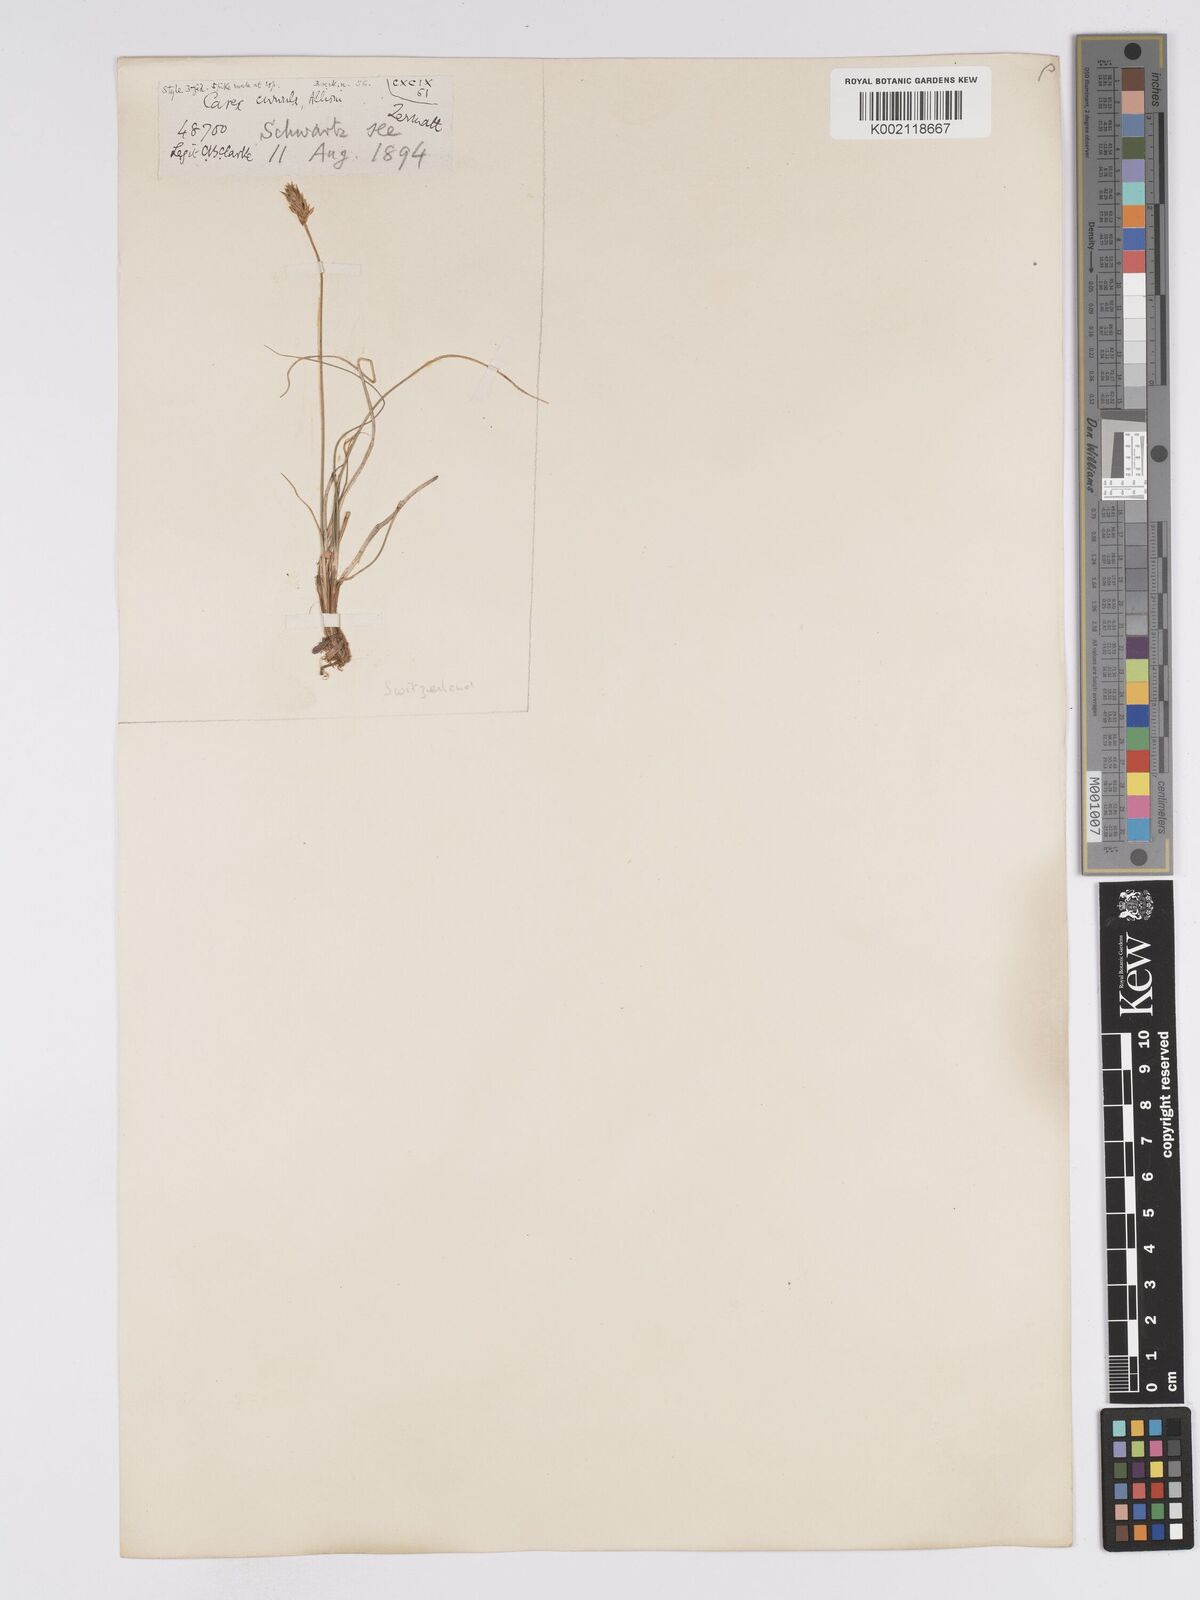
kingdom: Plantae
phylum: Tracheophyta
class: Liliopsida
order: Poales
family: Cyperaceae
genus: Carex
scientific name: Carex curvula
